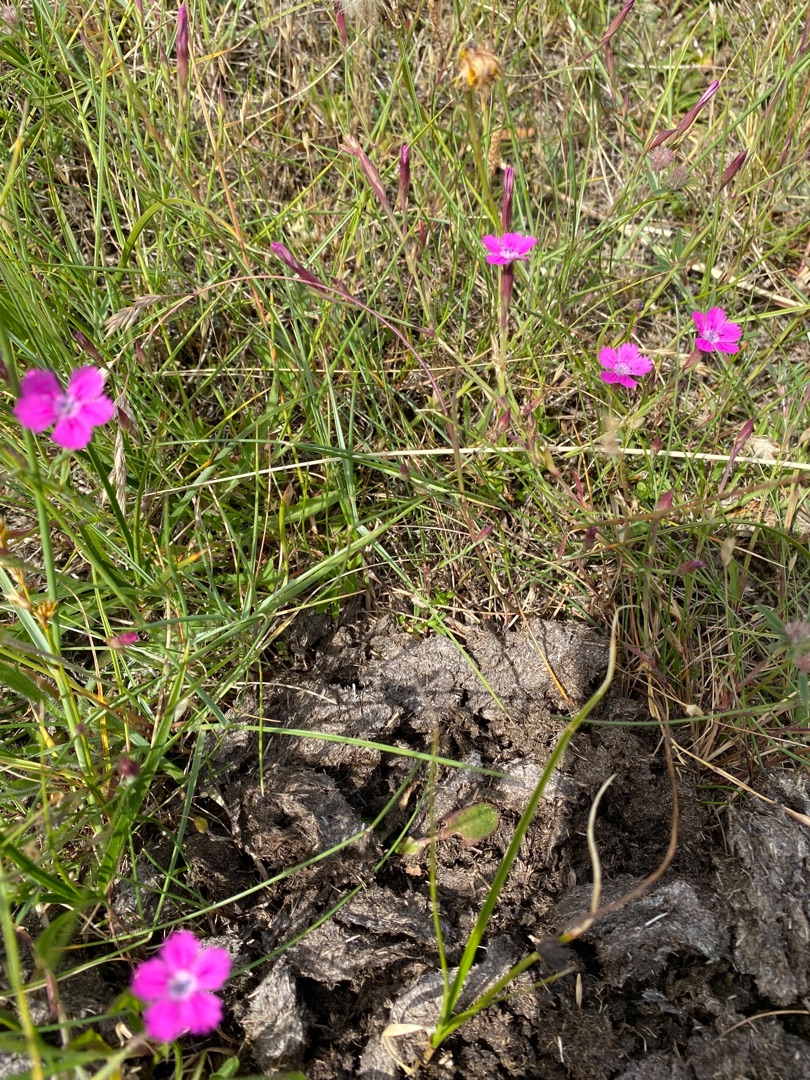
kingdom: Plantae
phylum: Tracheophyta
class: Magnoliopsida
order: Caryophyllales
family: Caryophyllaceae
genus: Dianthus
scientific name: Dianthus deltoides
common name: Bakke-nellike
